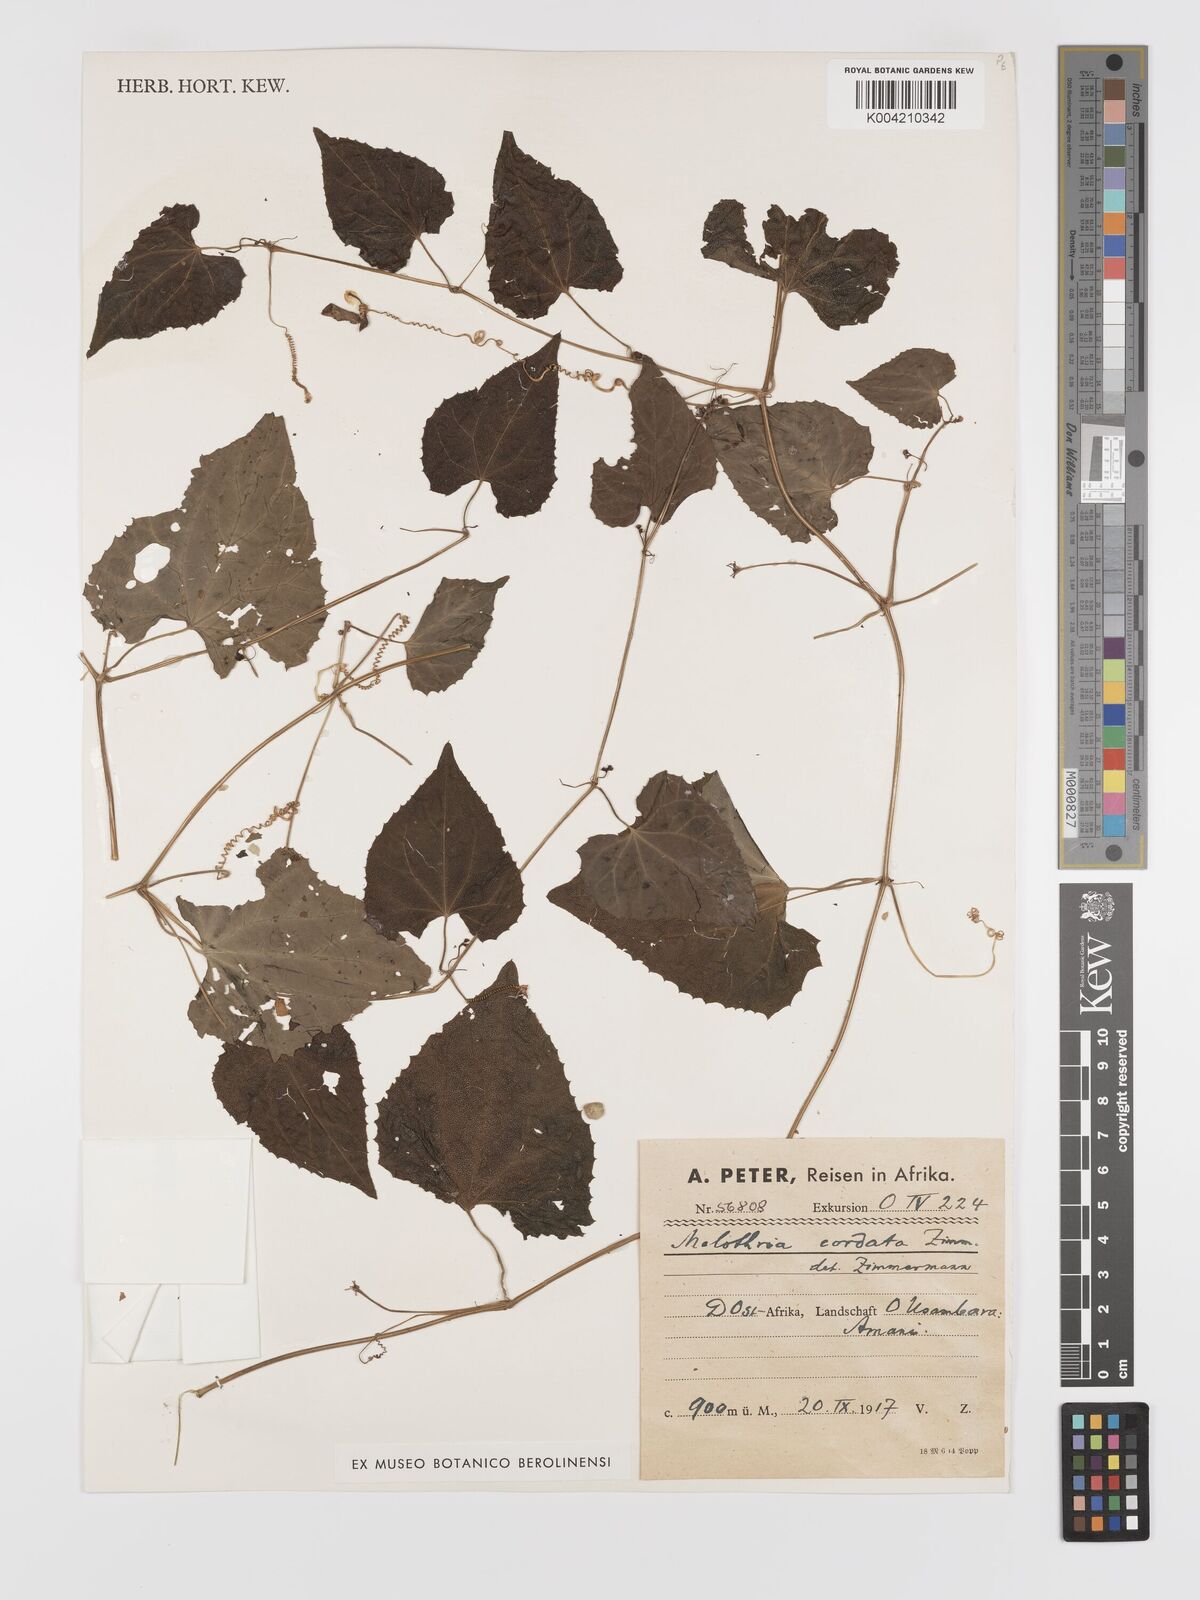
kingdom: Plantae
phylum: Tracheophyta
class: Magnoliopsida
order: Cucurbitales
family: Cucurbitaceae
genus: Zehneria
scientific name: Zehneria emirnensis
